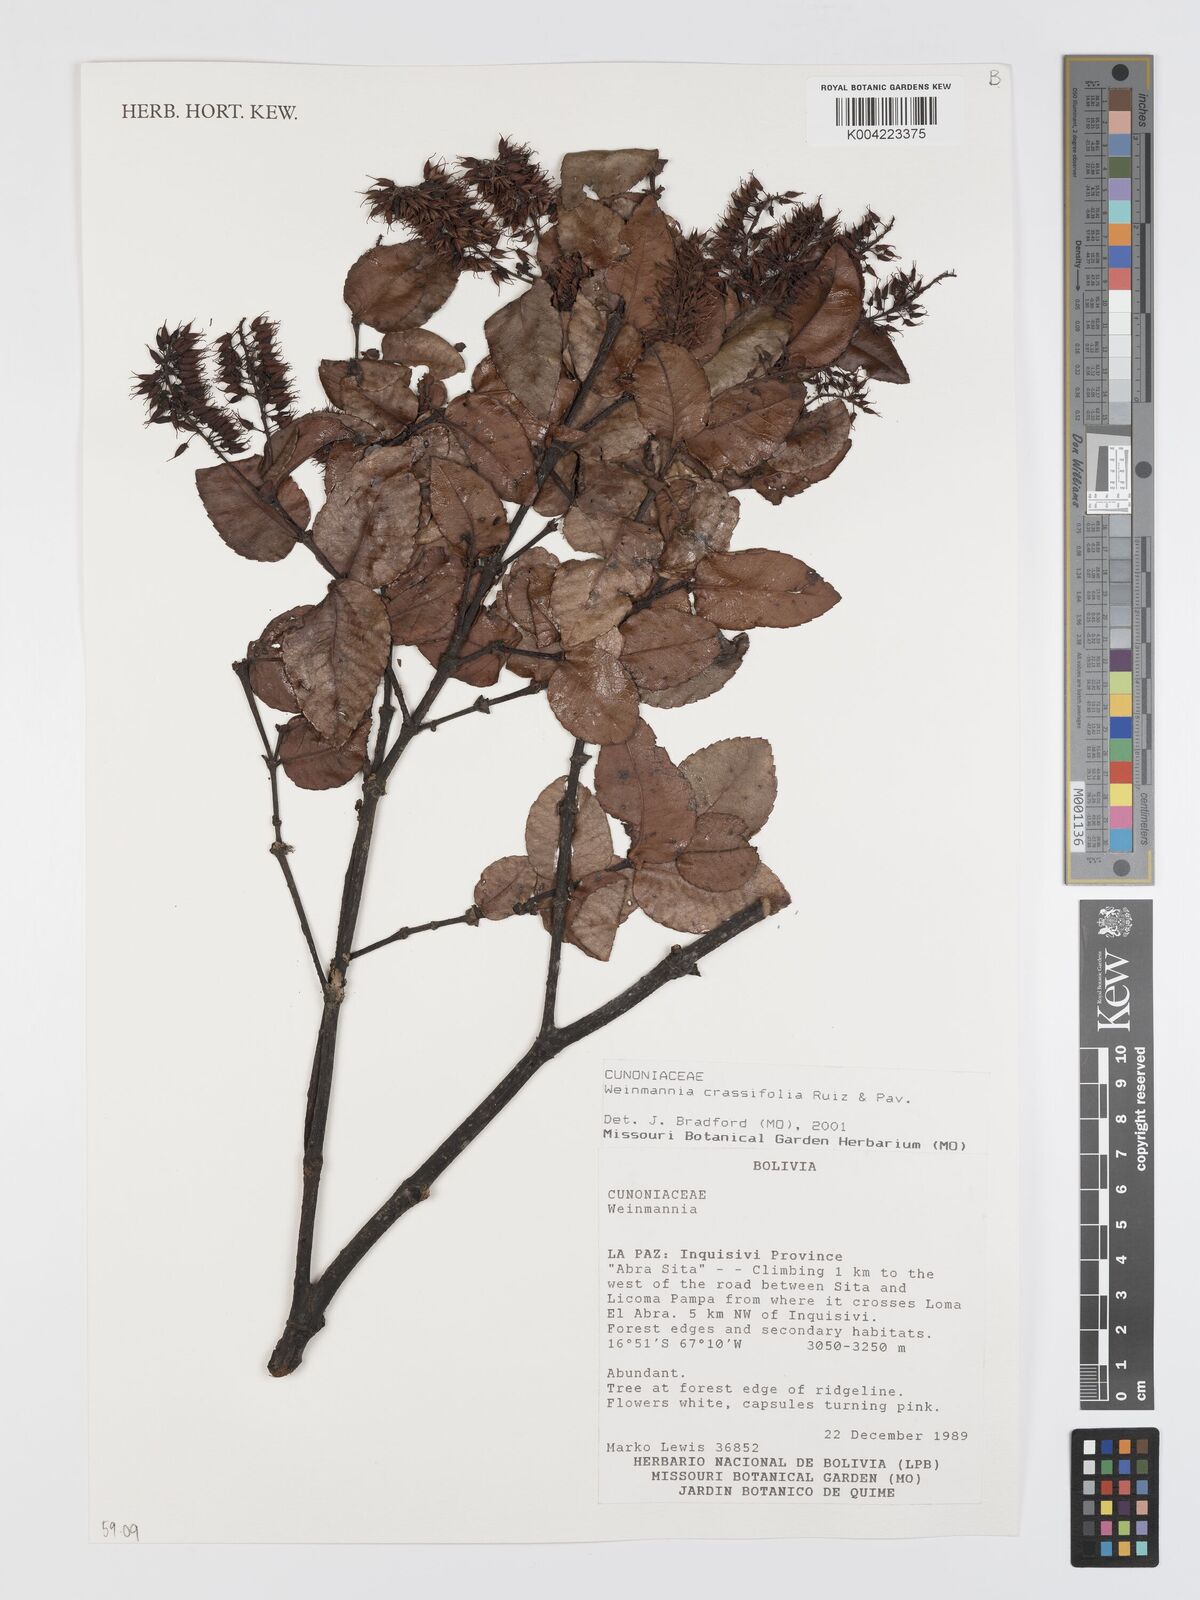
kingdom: Plantae
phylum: Tracheophyta
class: Magnoliopsida
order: Oxalidales
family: Cunoniaceae
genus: Weinmannia
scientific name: Weinmannia crassifolia
